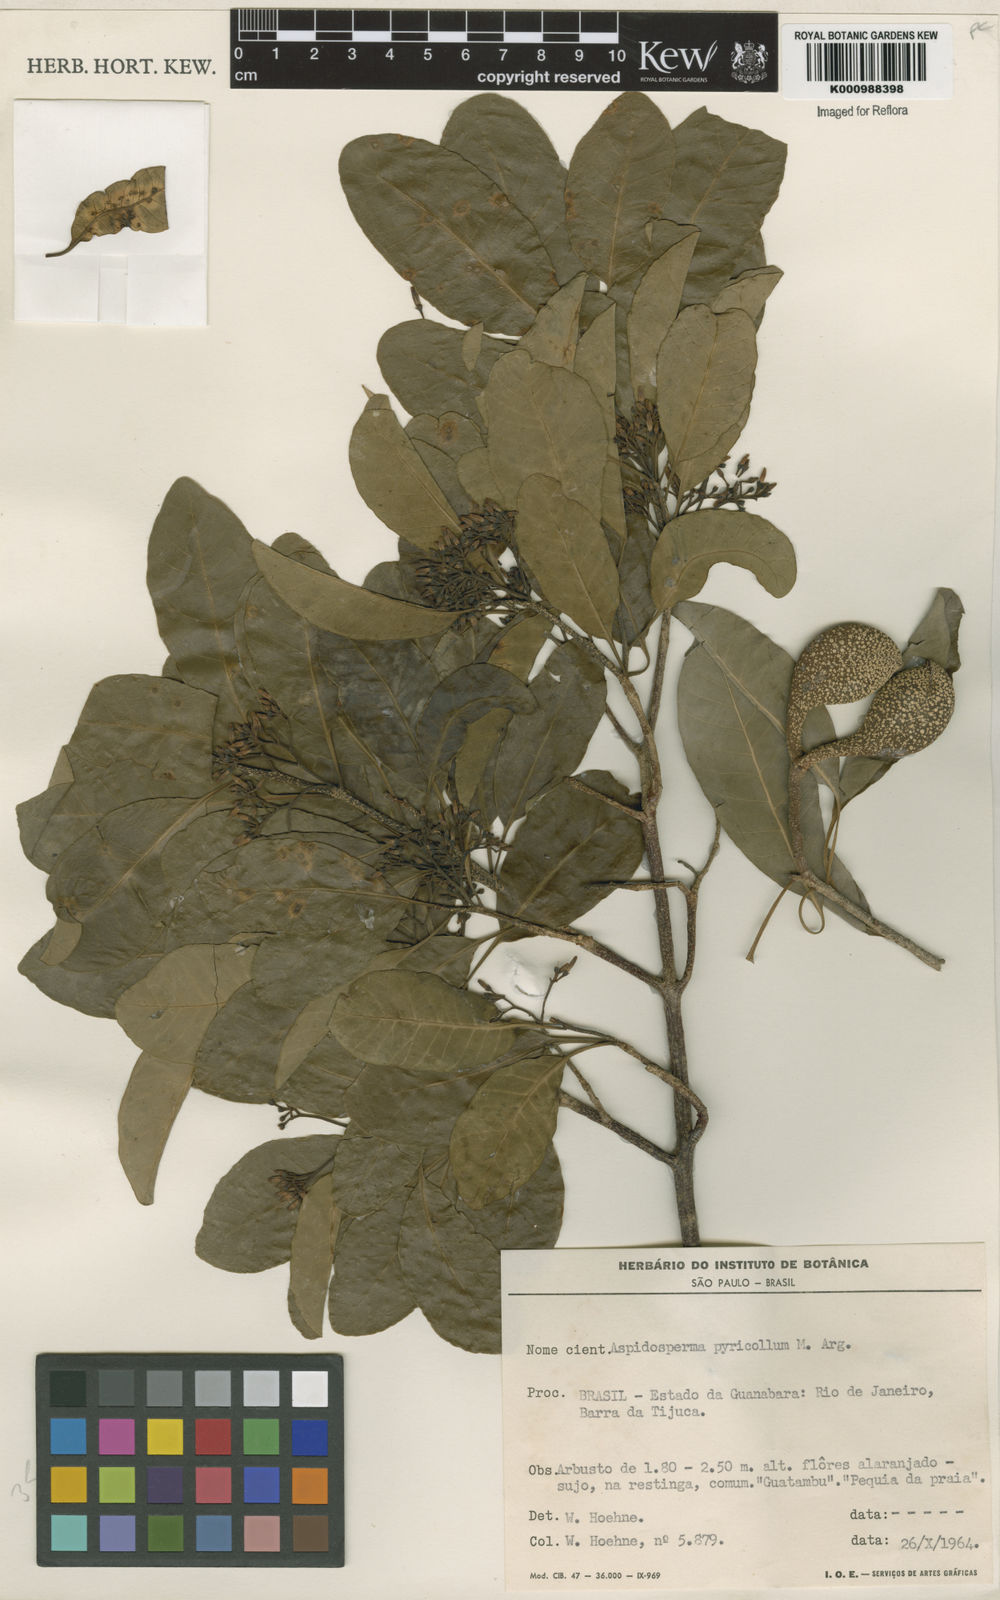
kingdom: Plantae
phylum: Tracheophyta
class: Magnoliopsida
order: Gentianales
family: Apocynaceae
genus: Aspidosperma
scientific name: Aspidosperma
